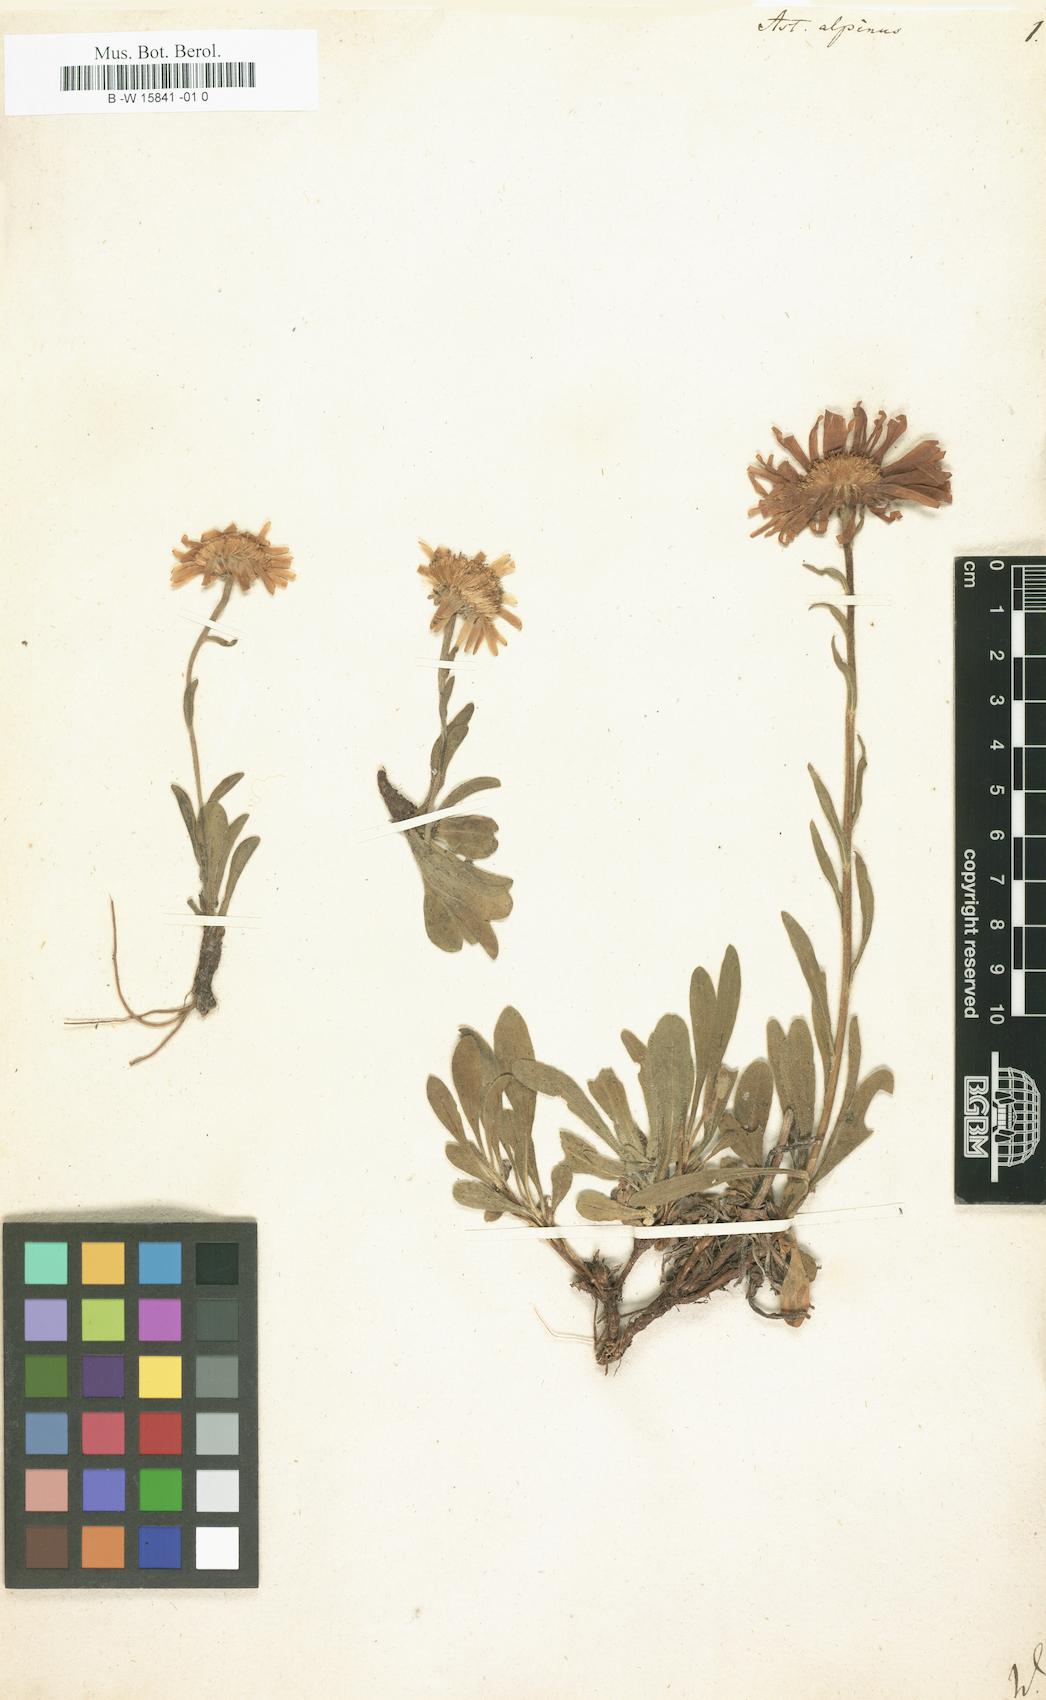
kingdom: Plantae
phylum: Tracheophyta
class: Magnoliopsida
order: Asterales
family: Asteraceae
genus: Aster
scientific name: Aster alpinus
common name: Alpine aster
